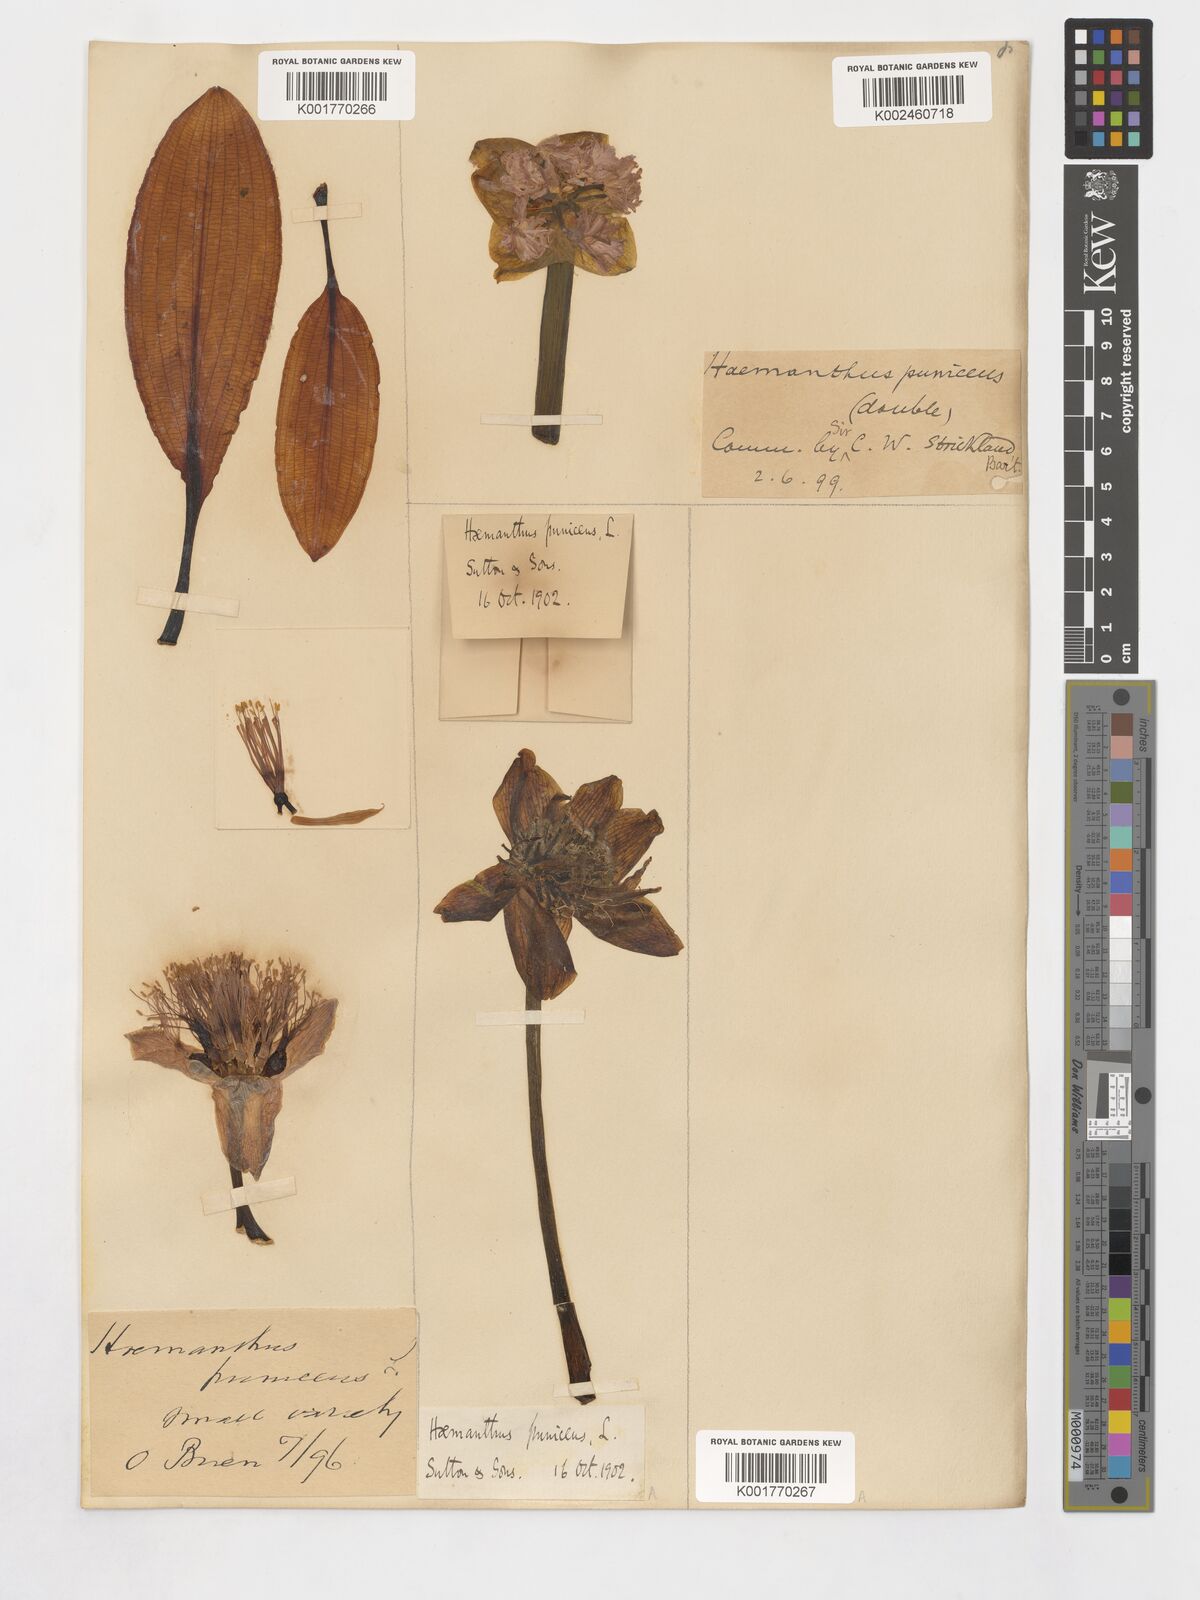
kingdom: Plantae
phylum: Tracheophyta
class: Liliopsida
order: Asparagales
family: Amaryllidaceae
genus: Scadoxus
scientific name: Scadoxus puniceus
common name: Royal-paintbrush
